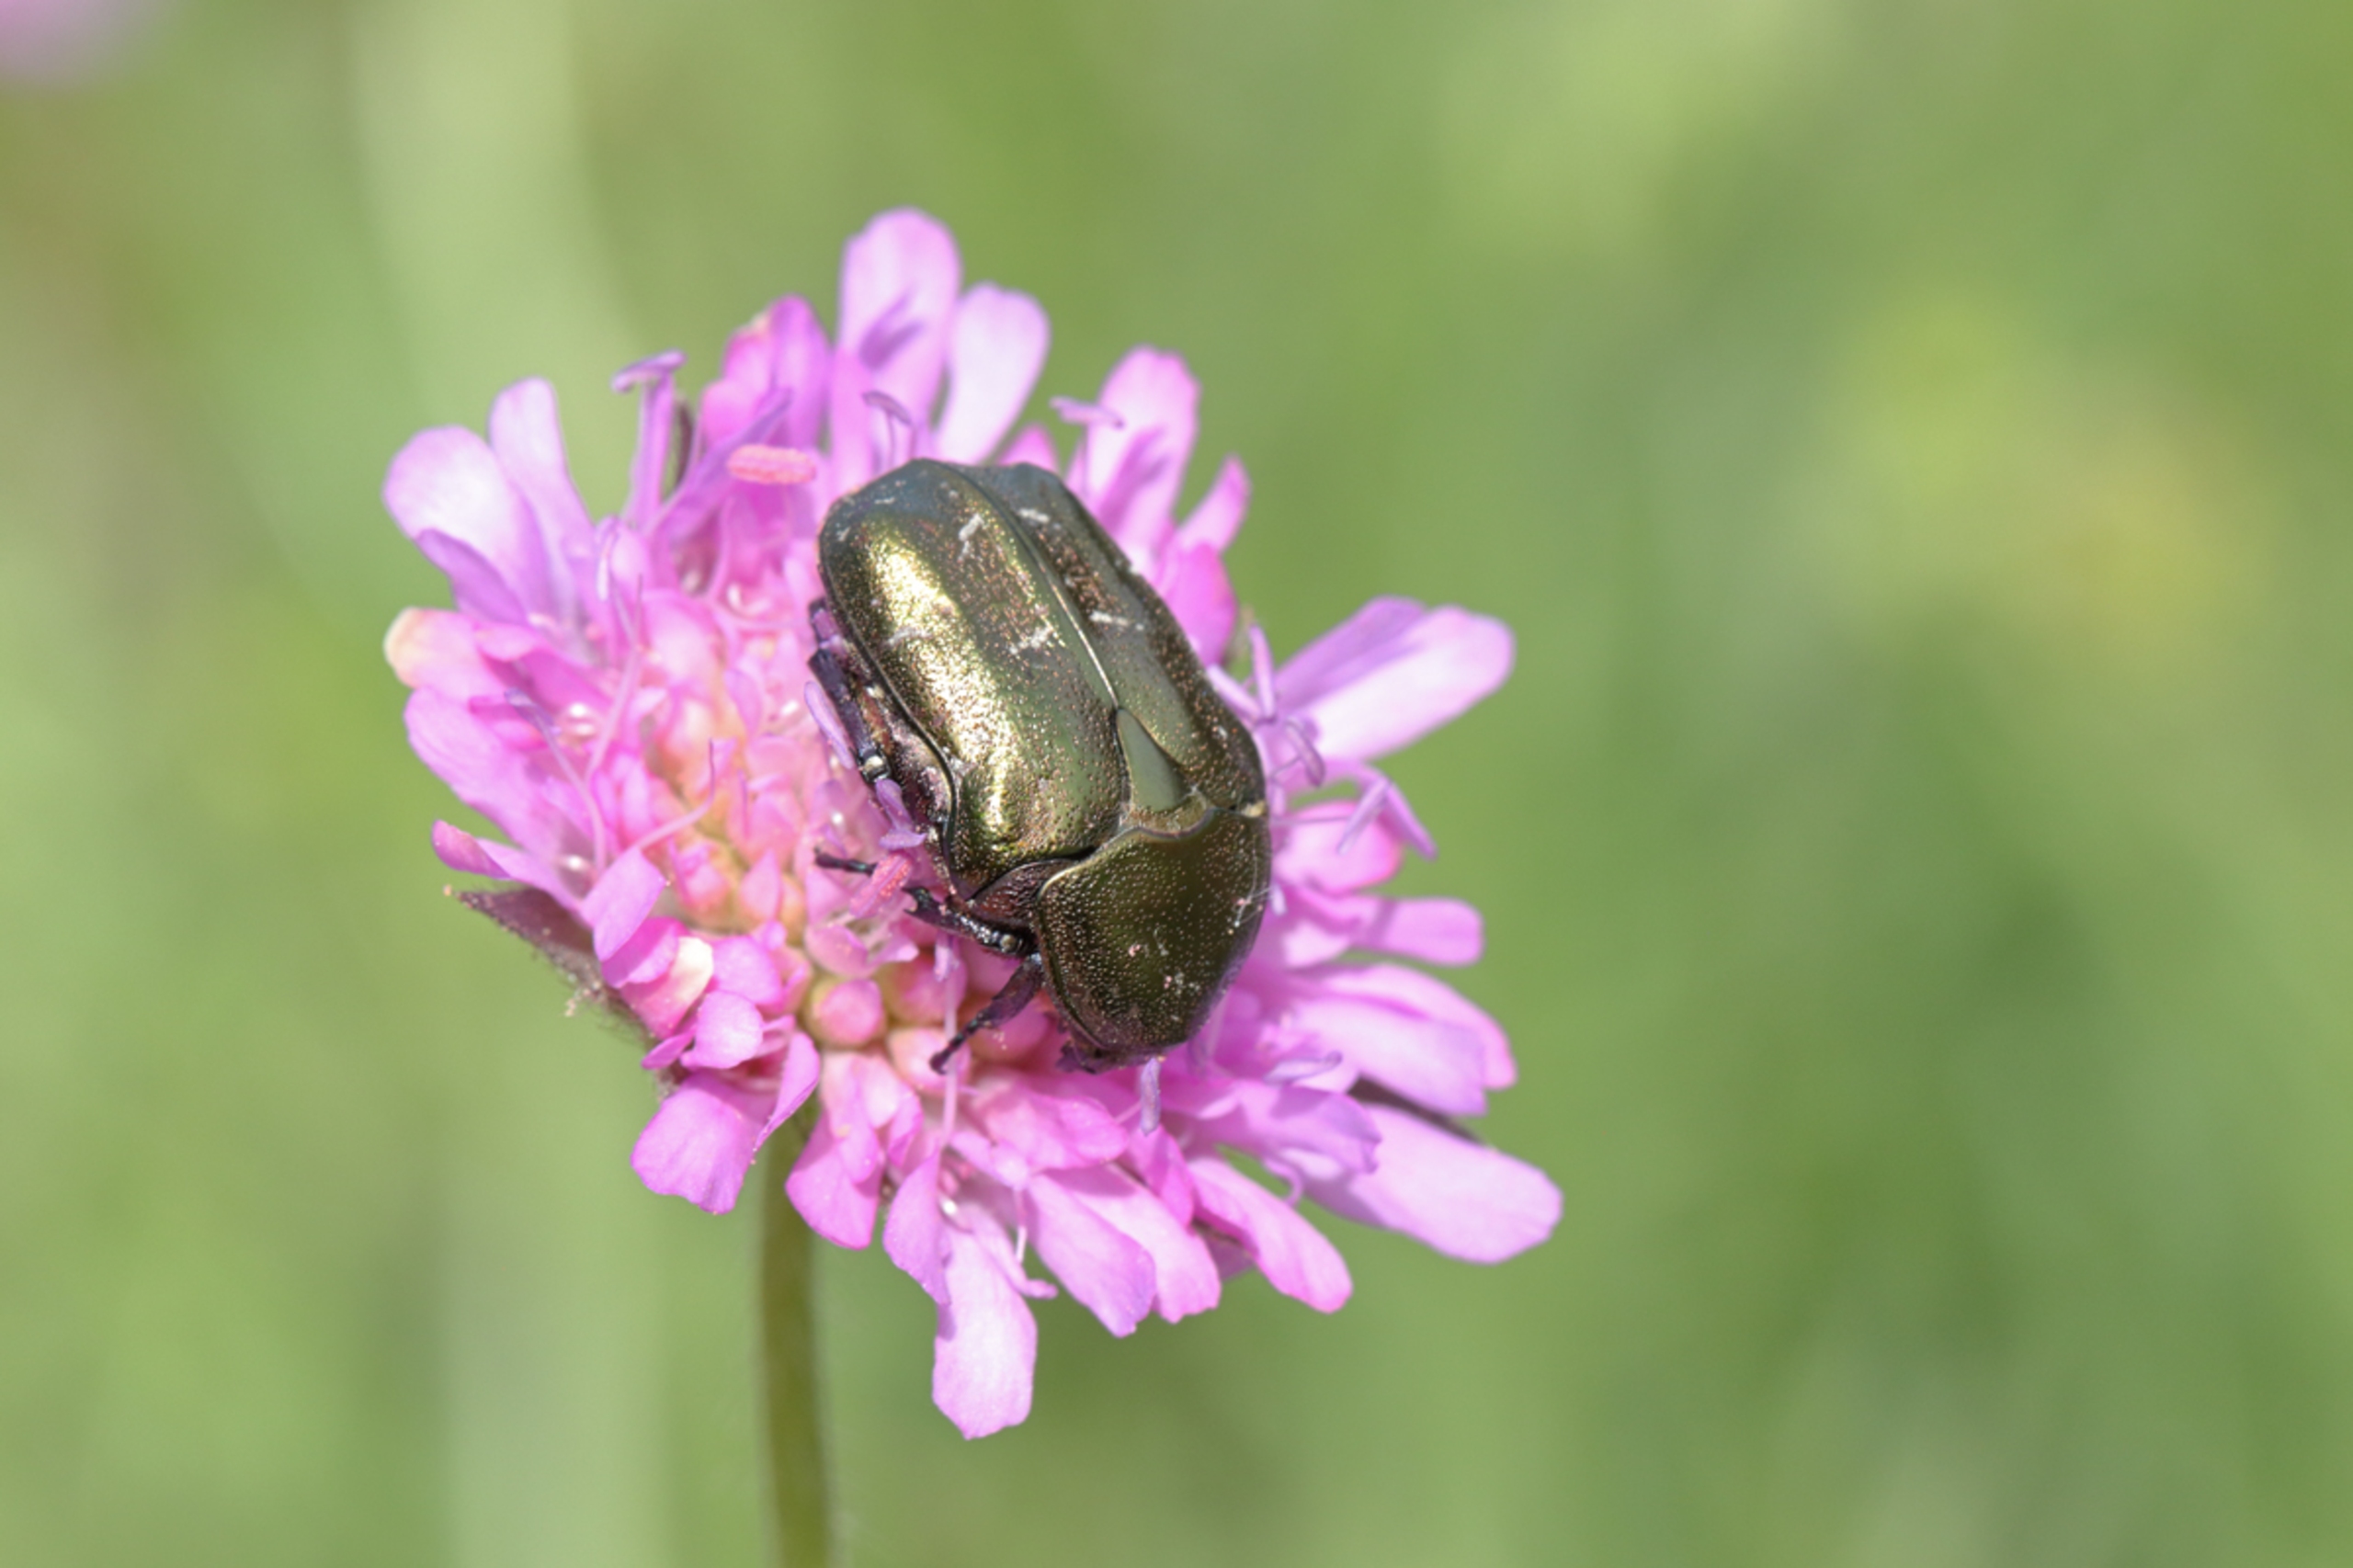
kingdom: Animalia
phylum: Arthropoda
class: Insecta
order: Coleoptera
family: Scarabaeidae
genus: Protaetia
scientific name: Protaetia cuprea
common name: Kobberguldbasse
